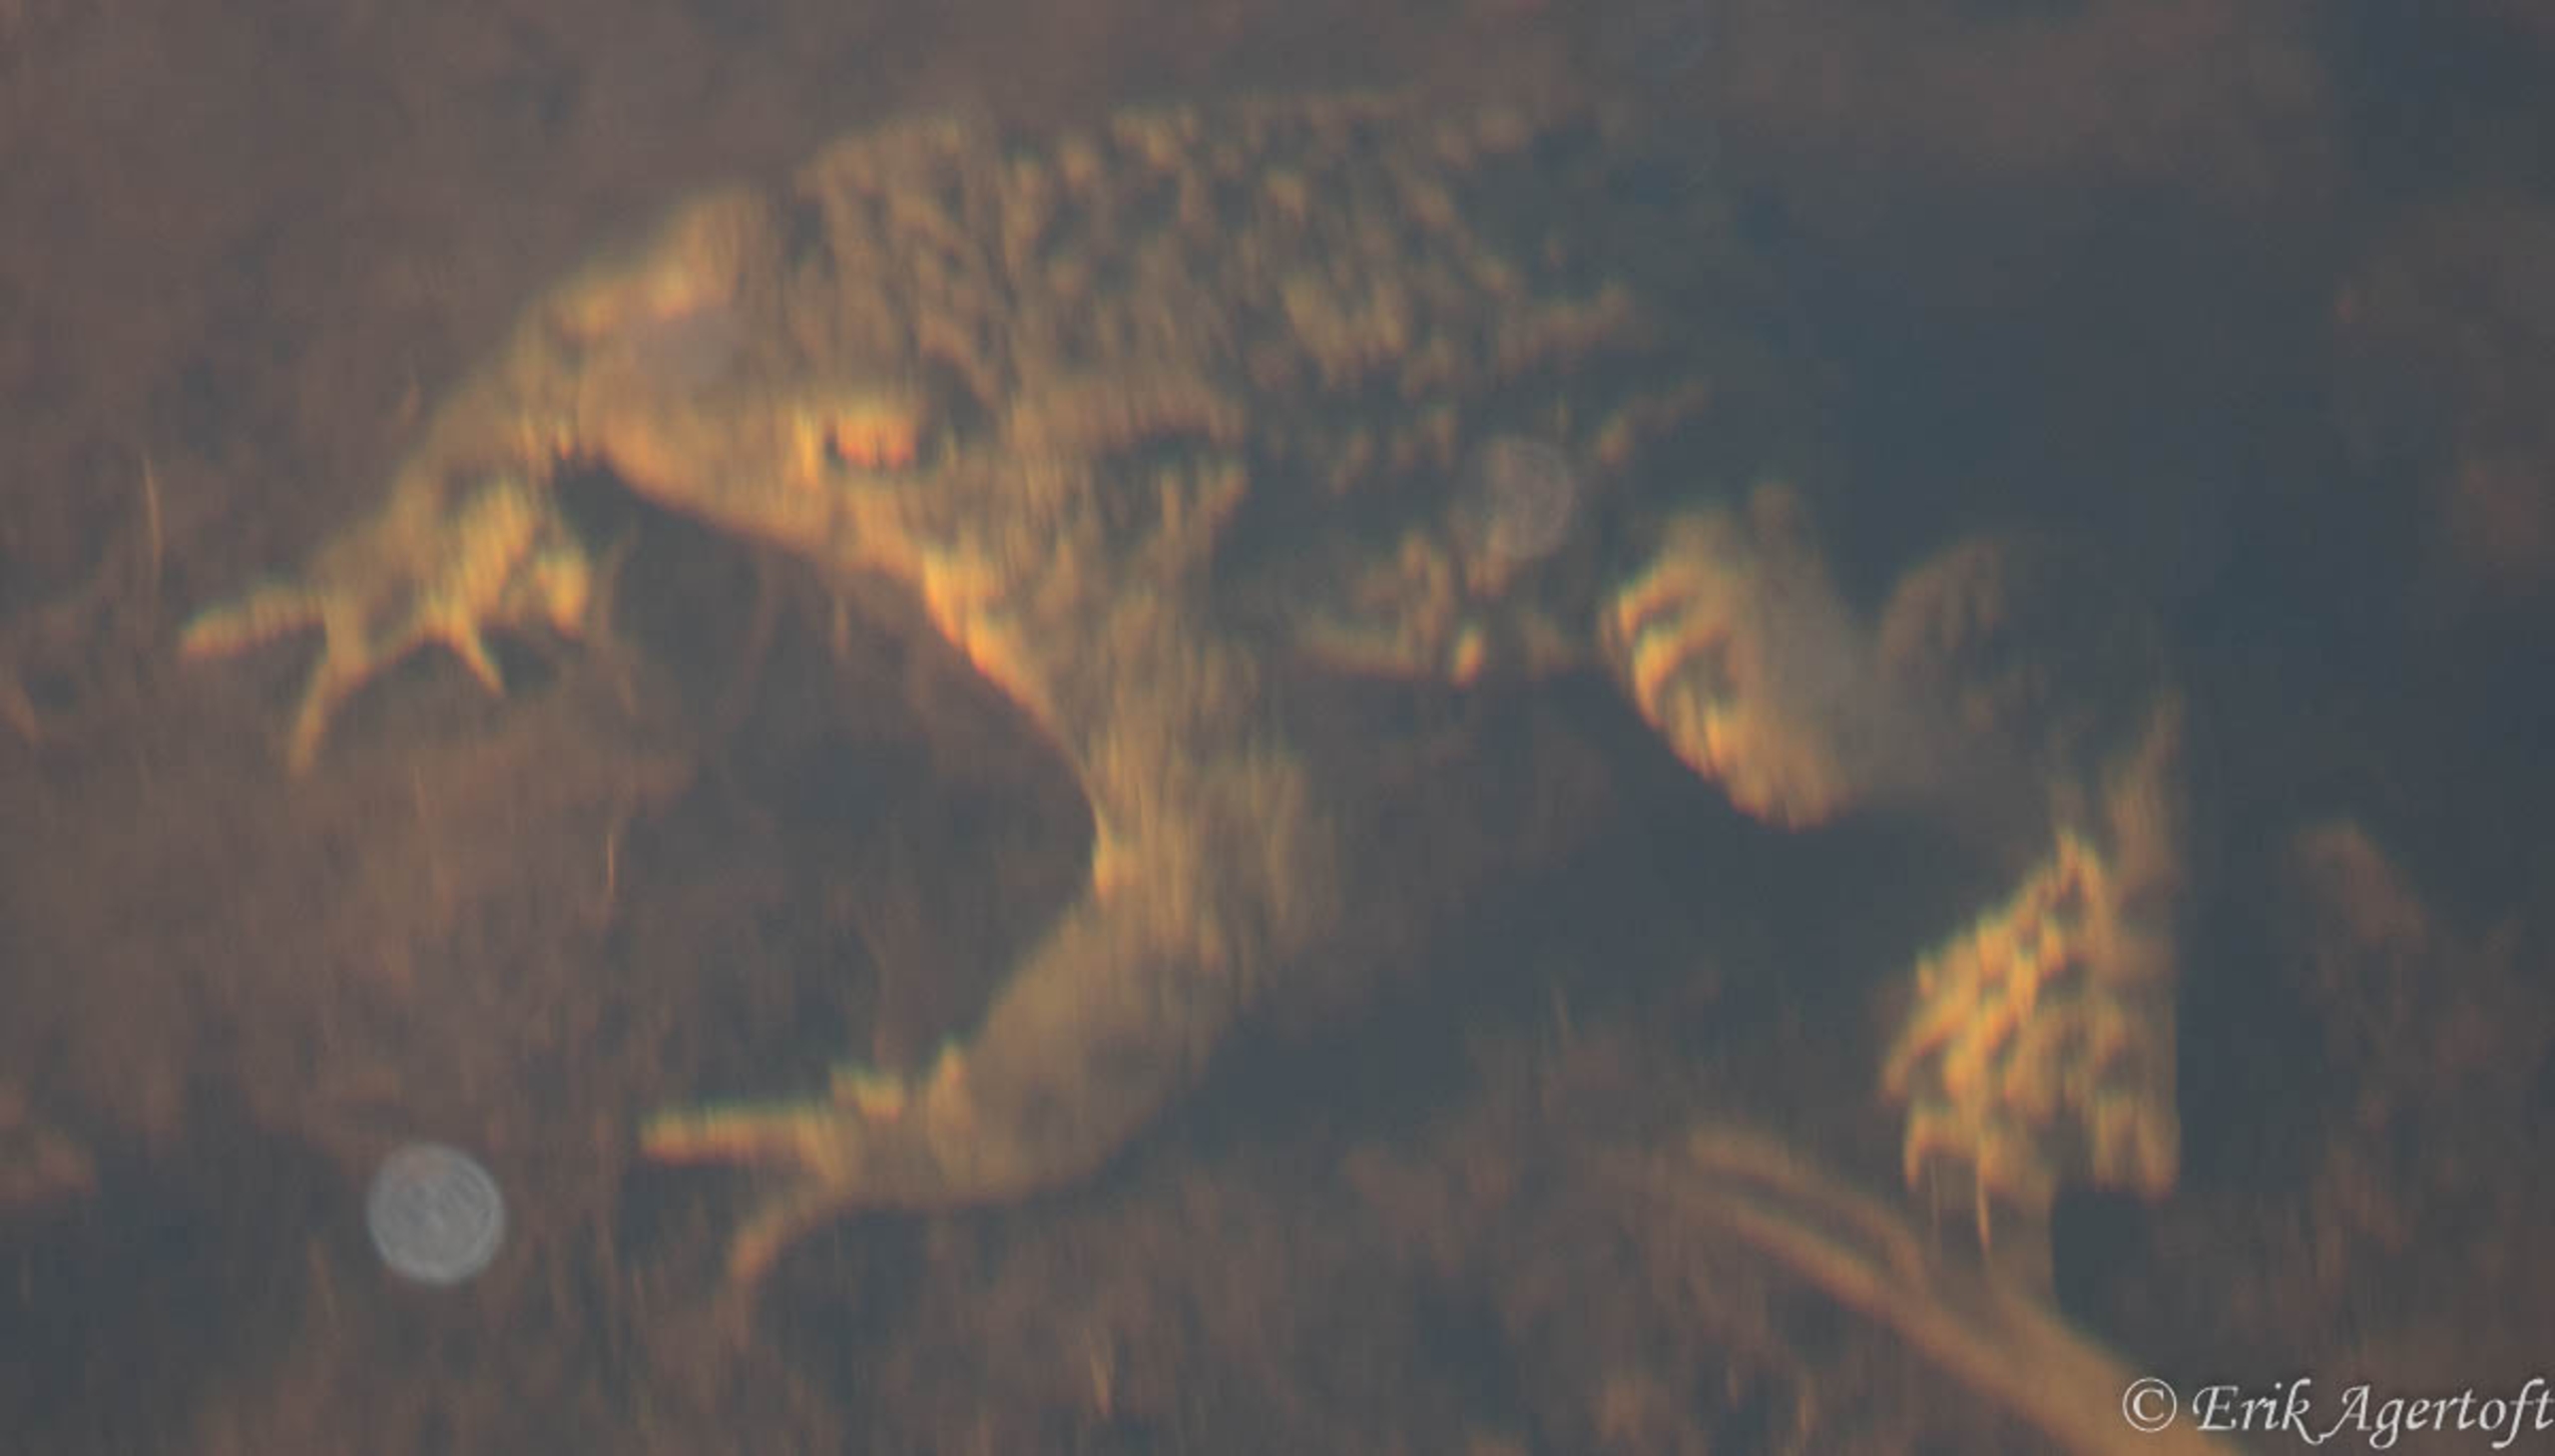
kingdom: Animalia
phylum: Chordata
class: Amphibia
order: Anura
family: Bufonidae
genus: Bufo
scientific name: Bufo bufo
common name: Skrubtudse
